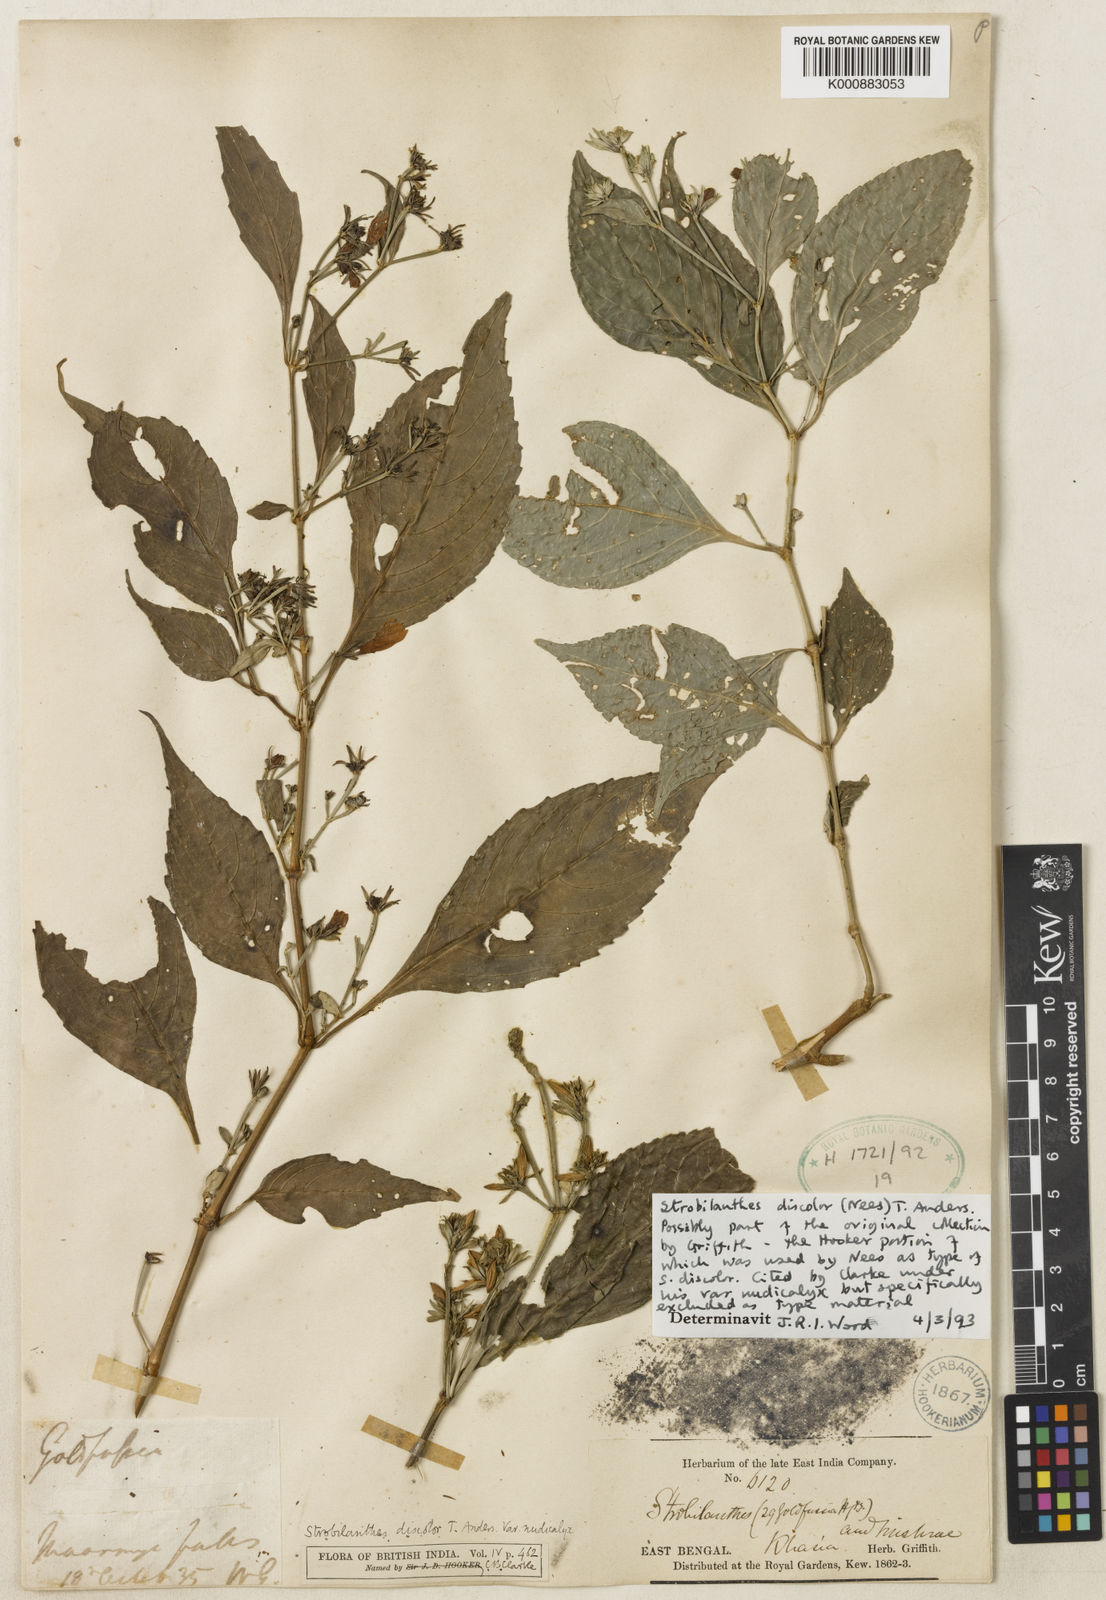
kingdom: Plantae
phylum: Tracheophyta
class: Magnoliopsida
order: Lamiales
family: Acanthaceae
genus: Strobilanthes
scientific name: Strobilanthes discolor
